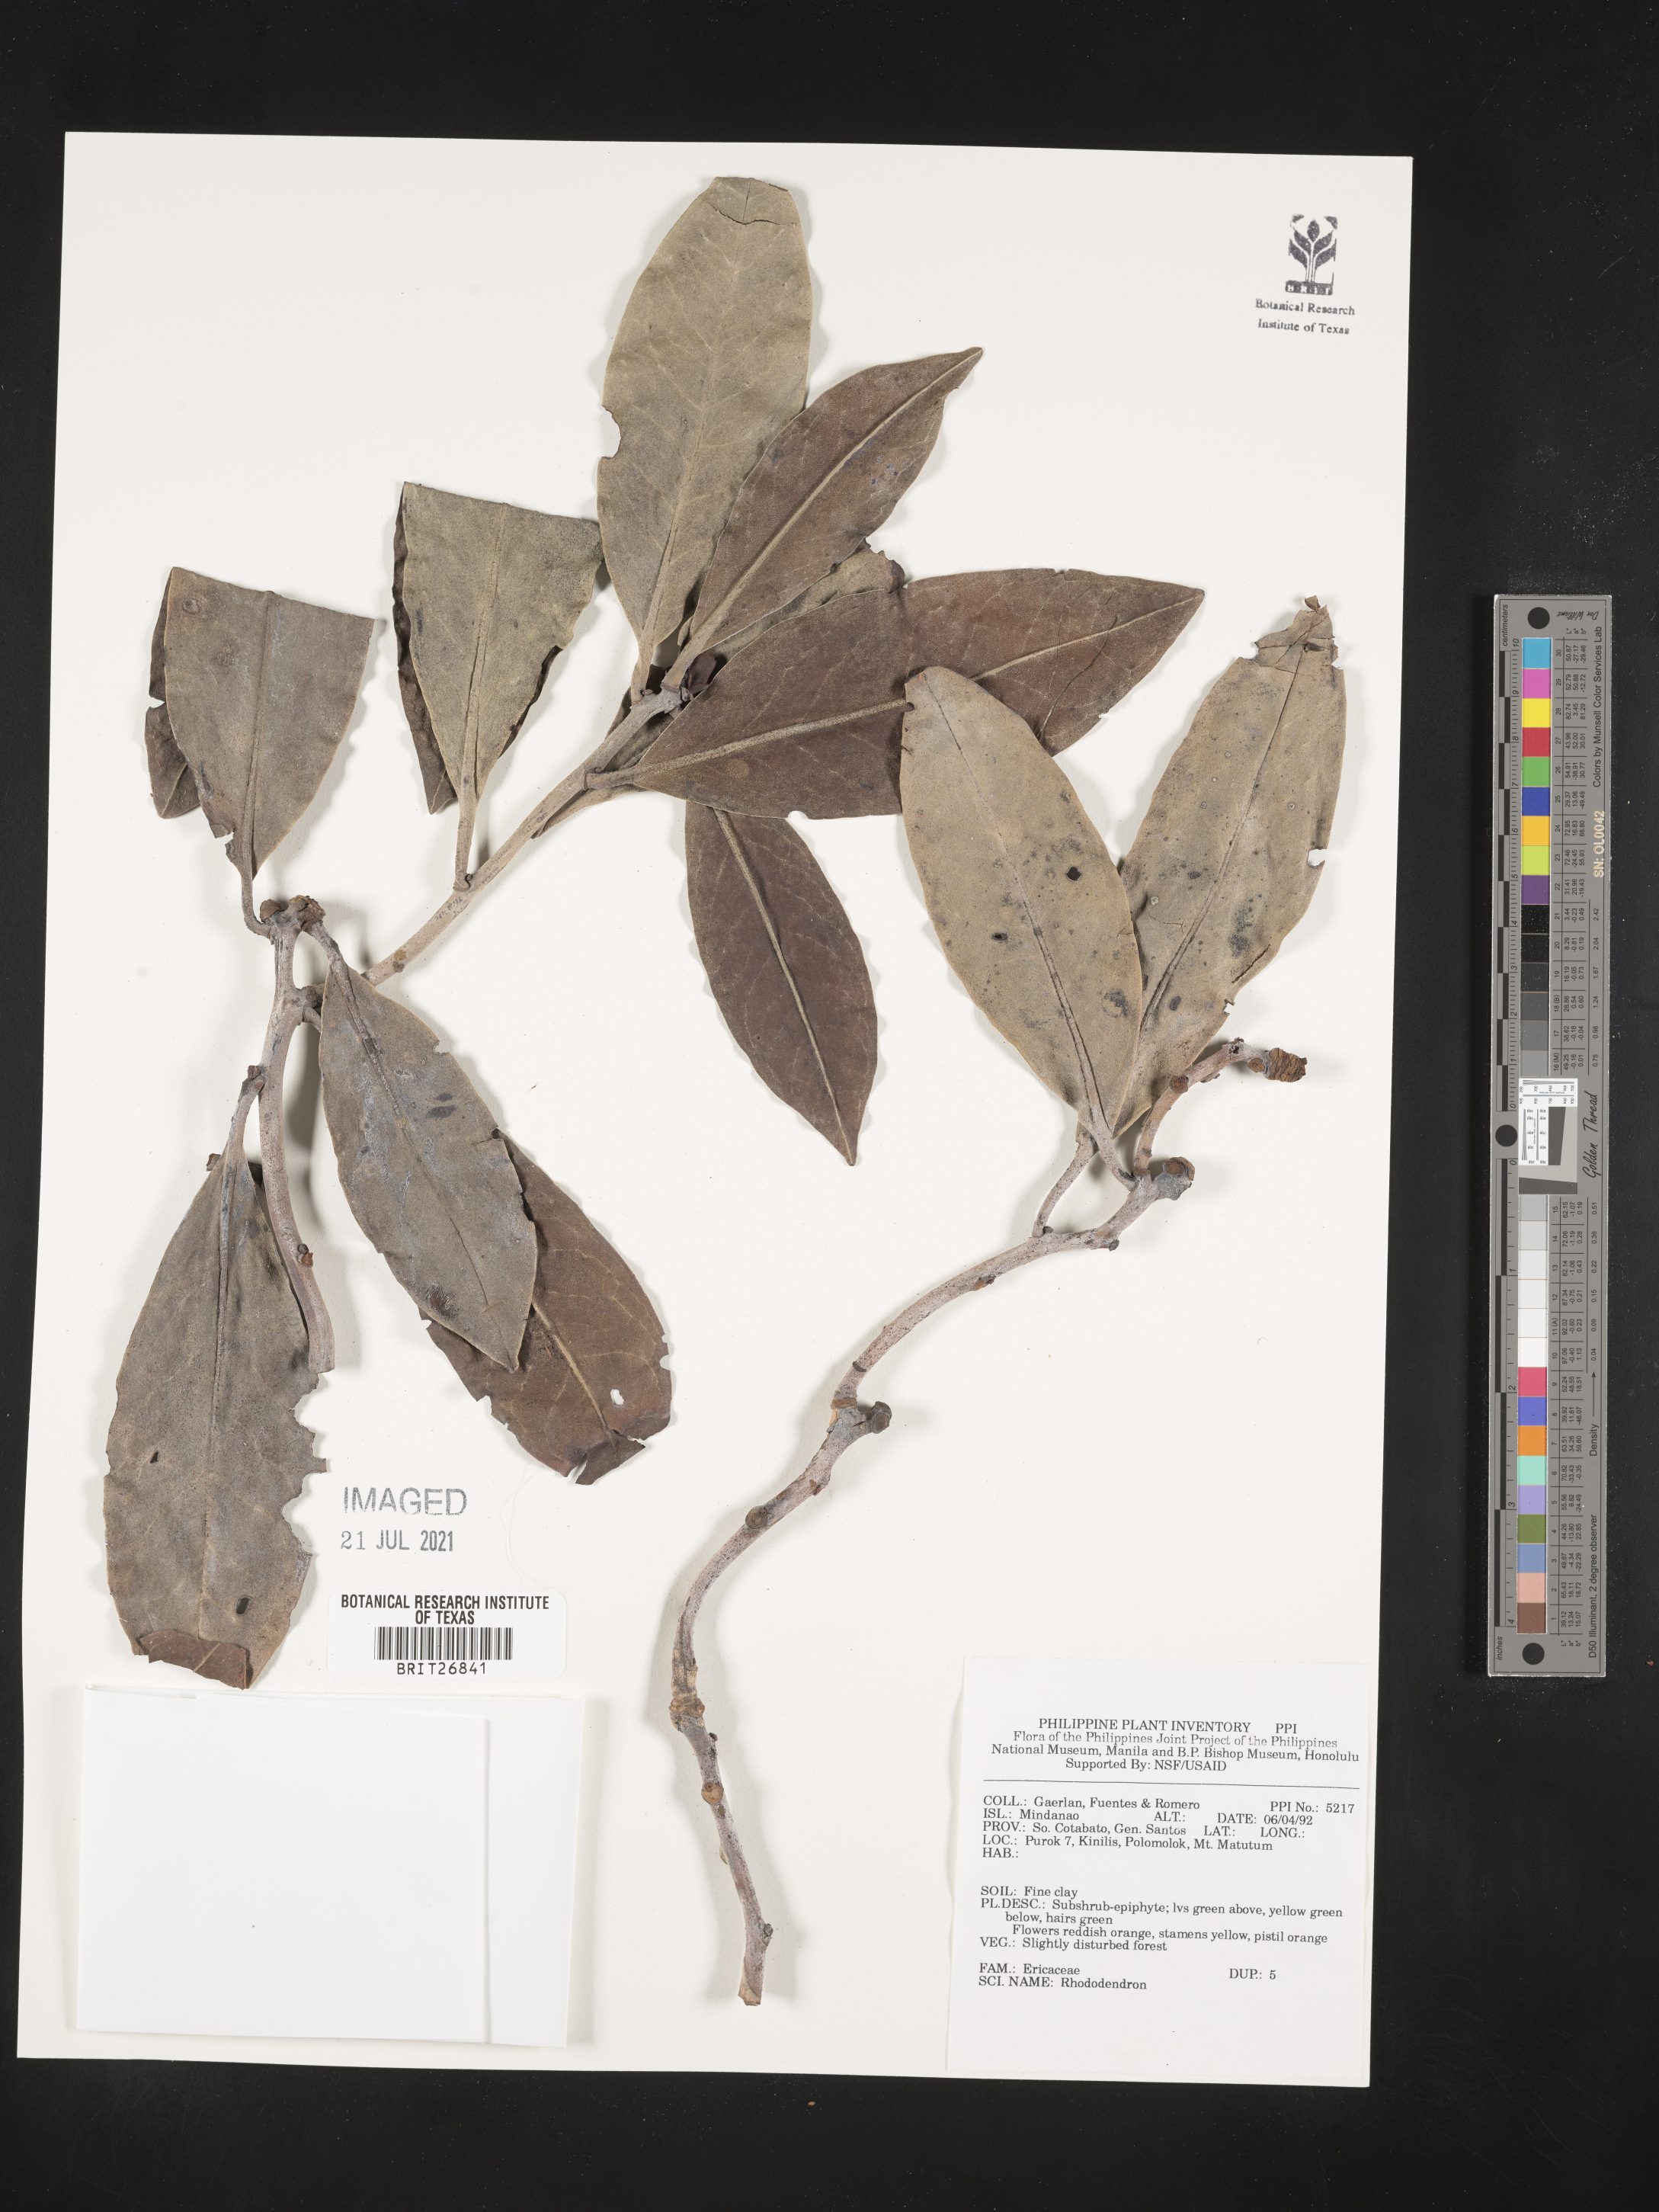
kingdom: Plantae
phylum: Tracheophyta
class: Magnoliopsida
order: Ericales
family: Ericaceae
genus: Rhododendron
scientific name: Rhododendron
